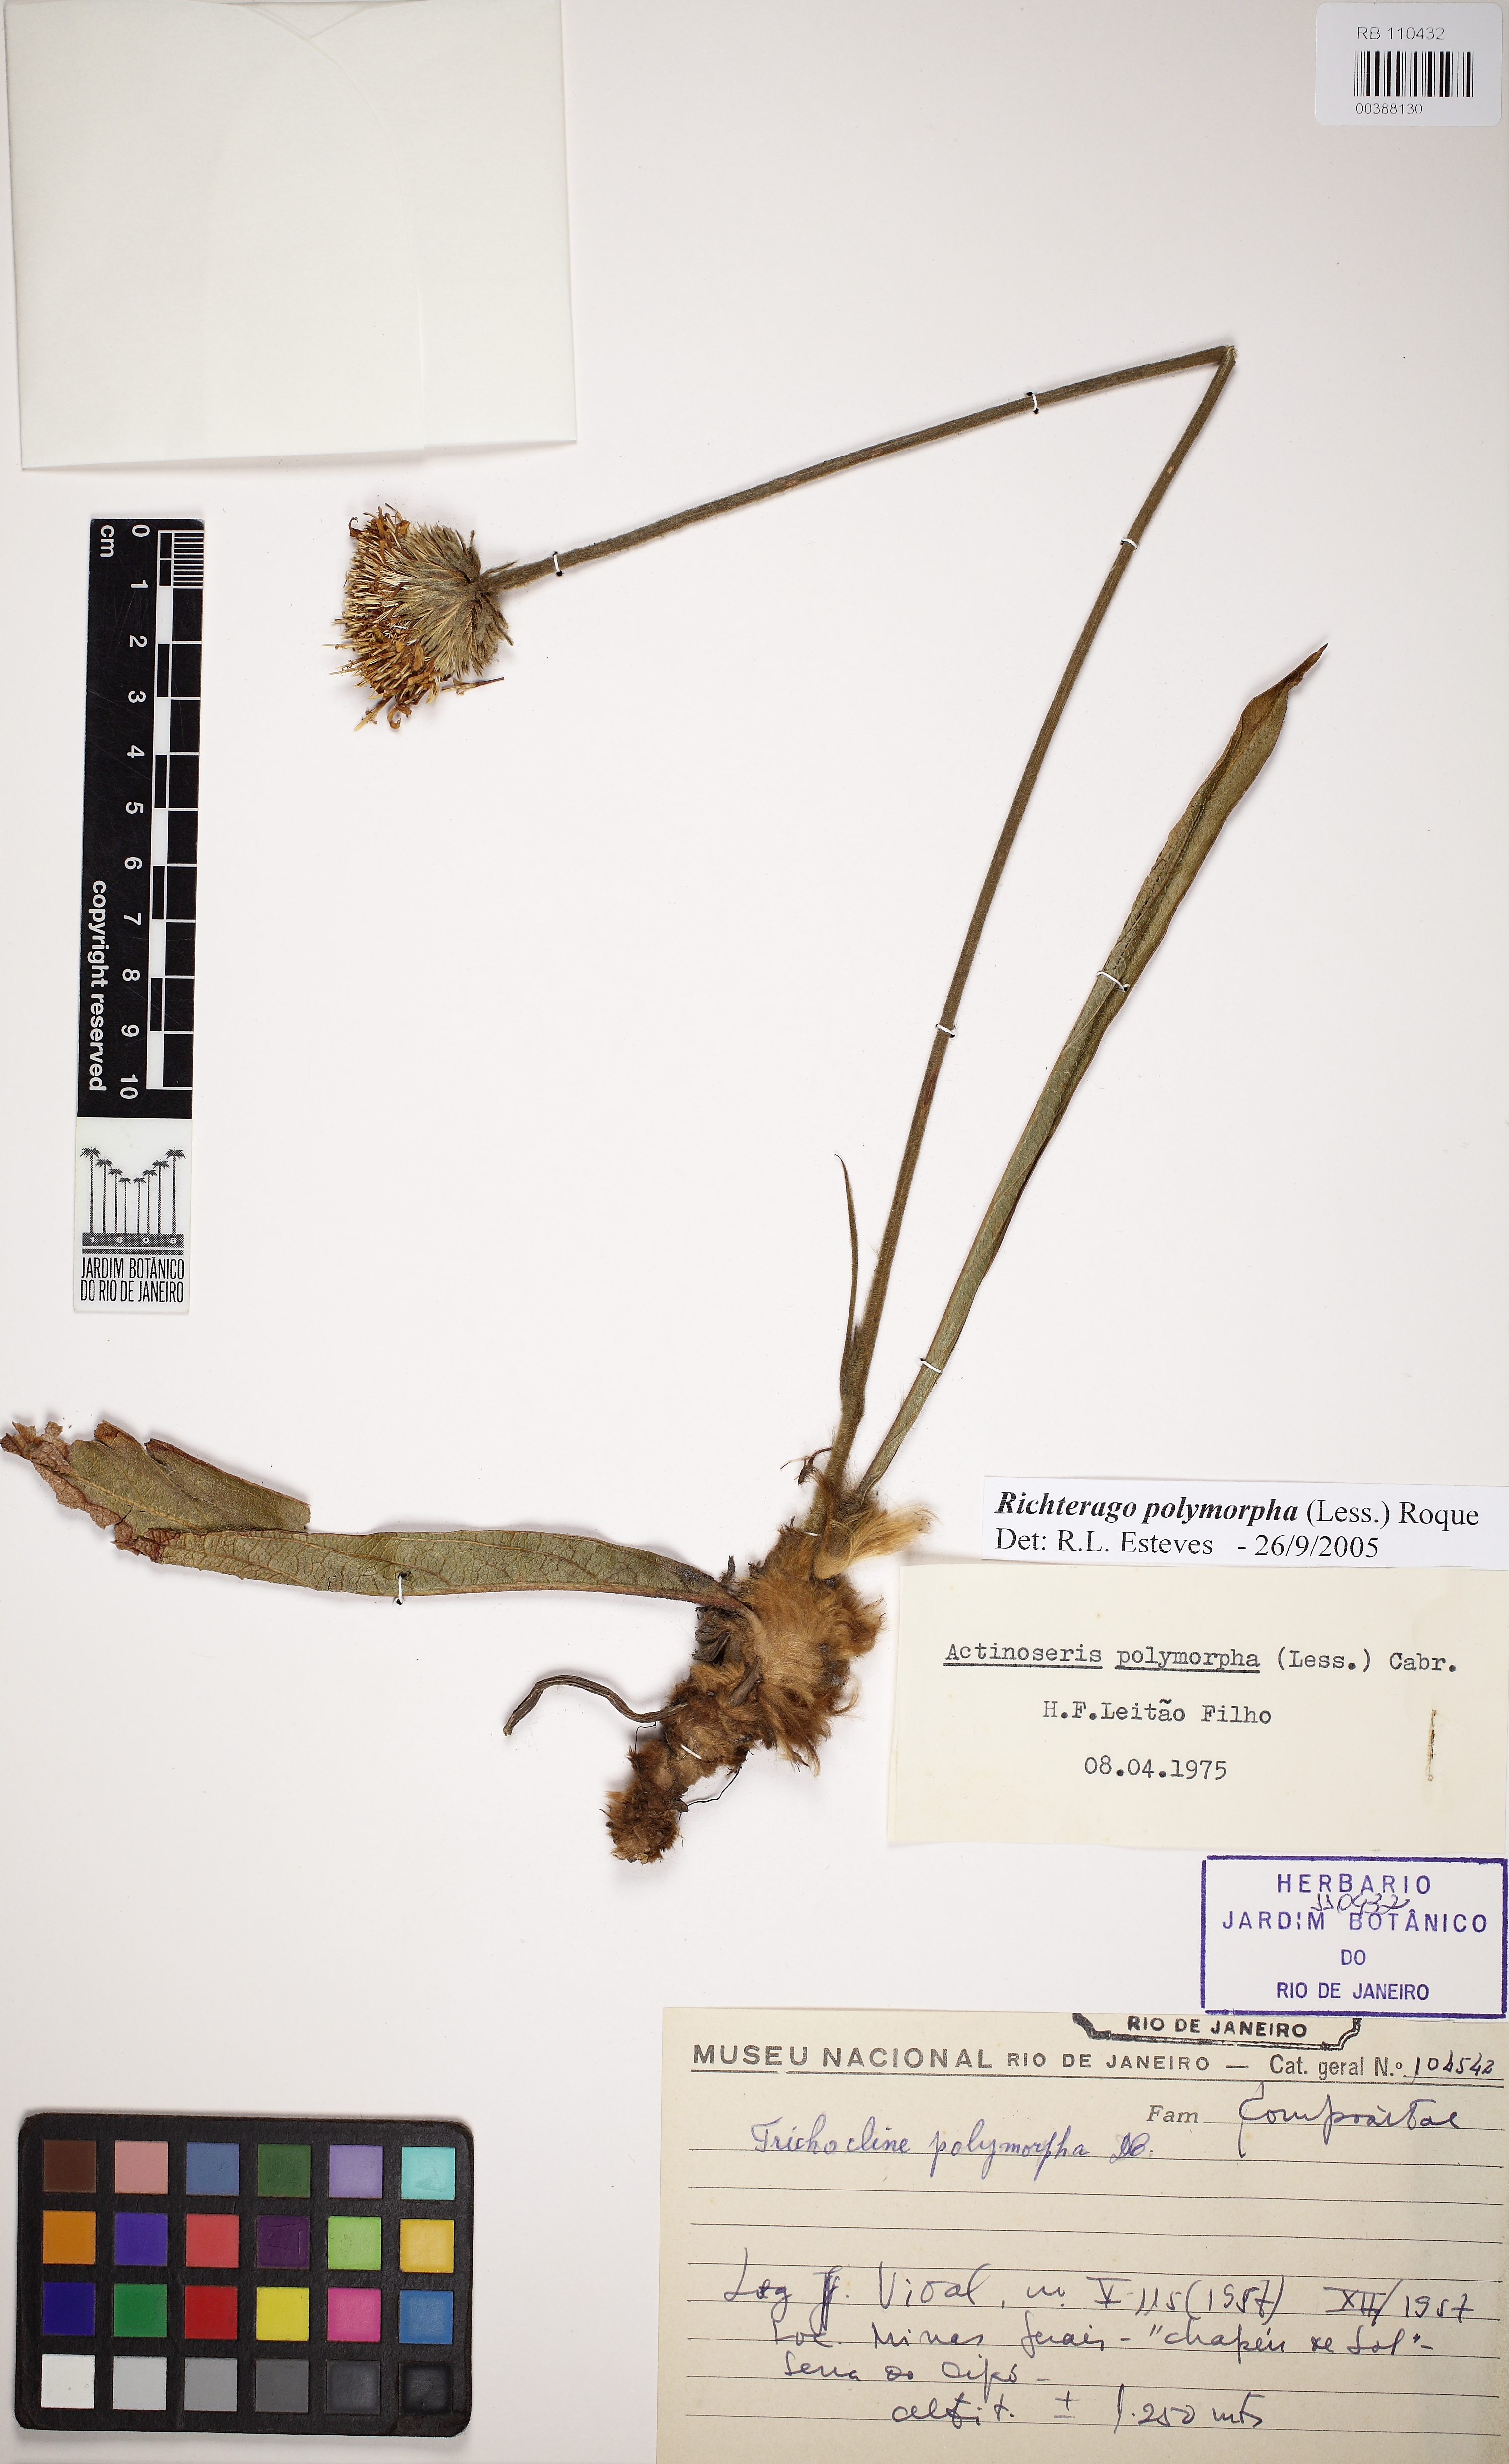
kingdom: Plantae
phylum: Tracheophyta
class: Magnoliopsida
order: Asterales
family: Asteraceae
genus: Richterago
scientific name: Richterago polymorpha
